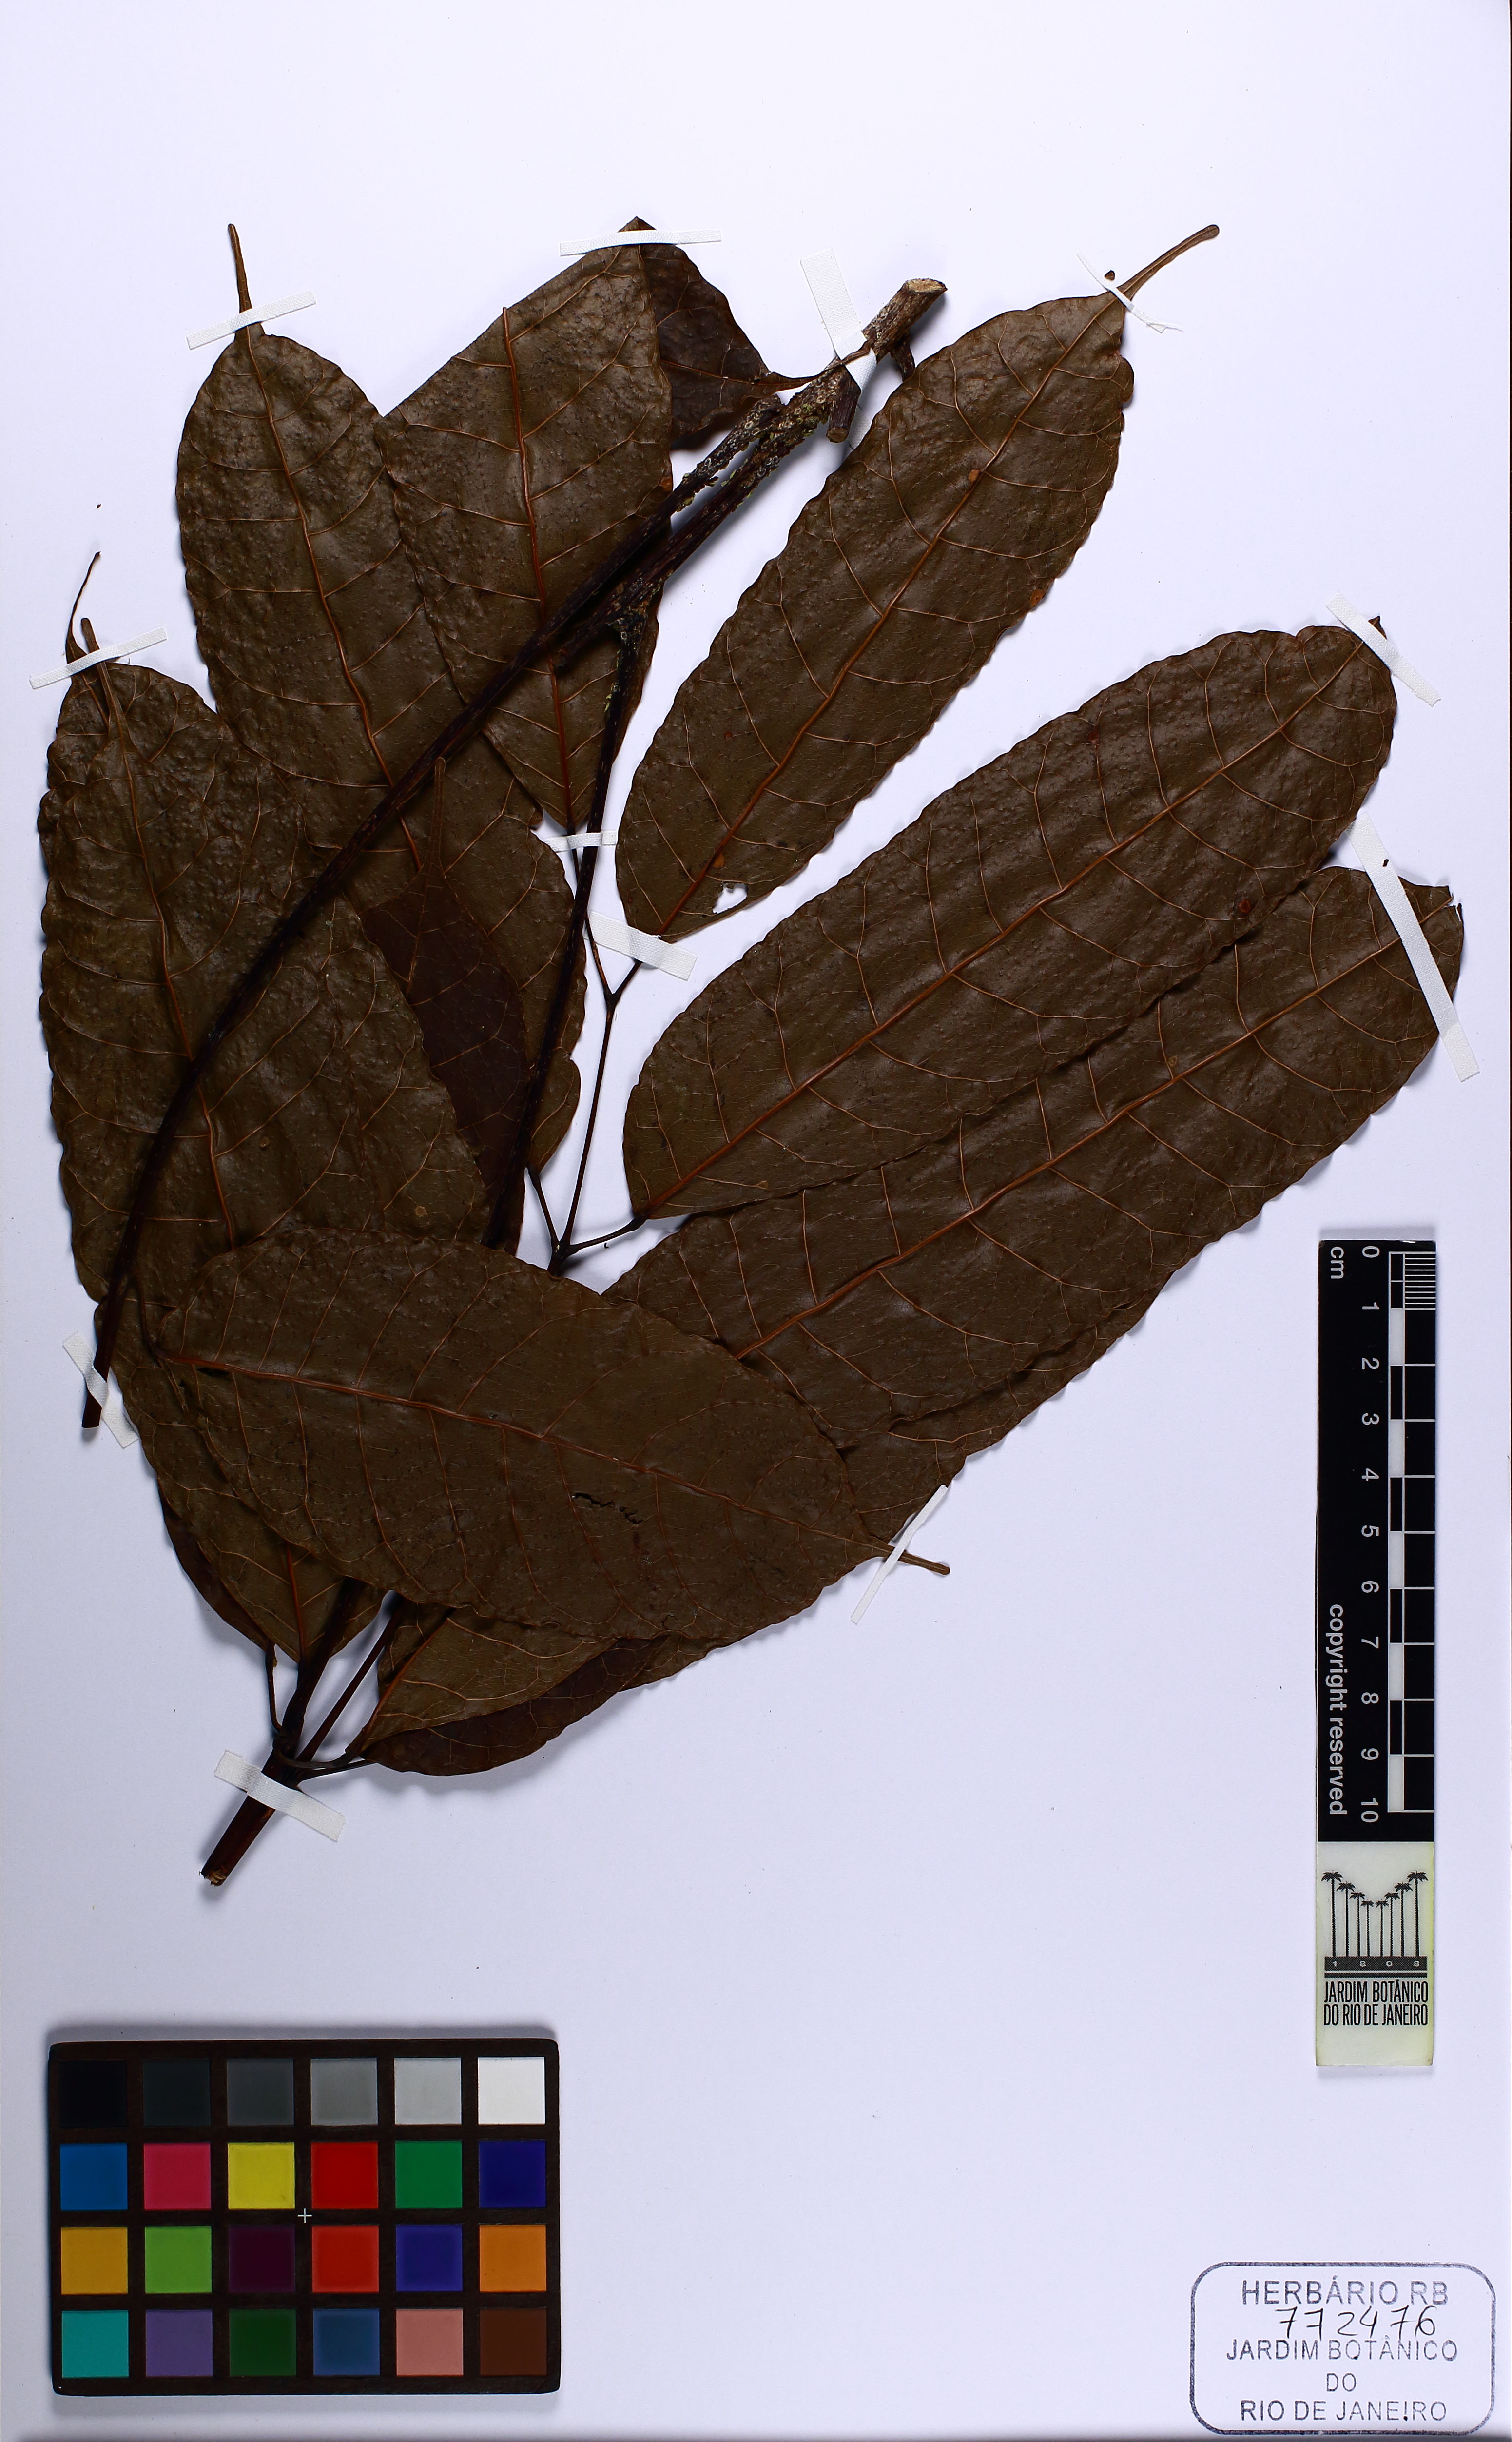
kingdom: Plantae
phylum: Tracheophyta
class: Magnoliopsida
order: Sapindales
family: Burseraceae
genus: Protium
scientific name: Protium warmingianum
